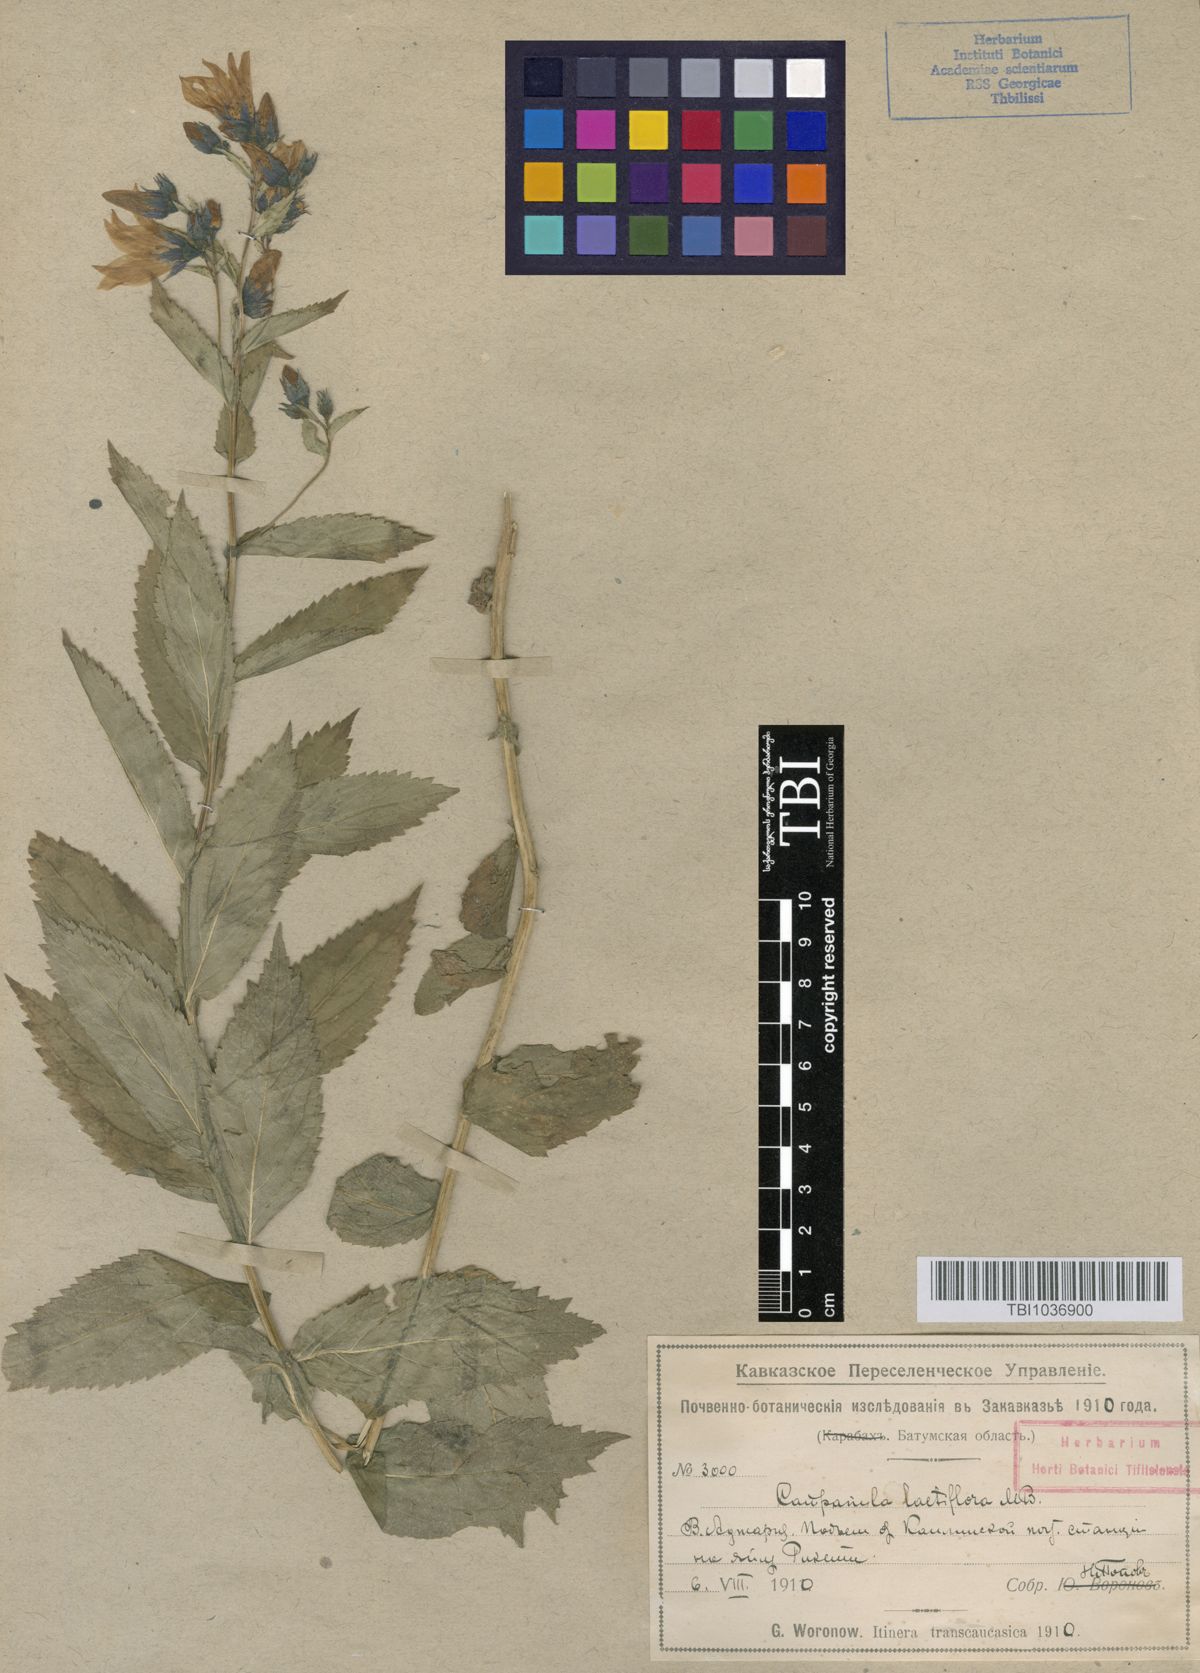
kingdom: Plantae
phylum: Tracheophyta
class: Magnoliopsida
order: Asterales
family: Campanulaceae
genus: Campanula
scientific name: Campanula lactiflora
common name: Milky bellflower
